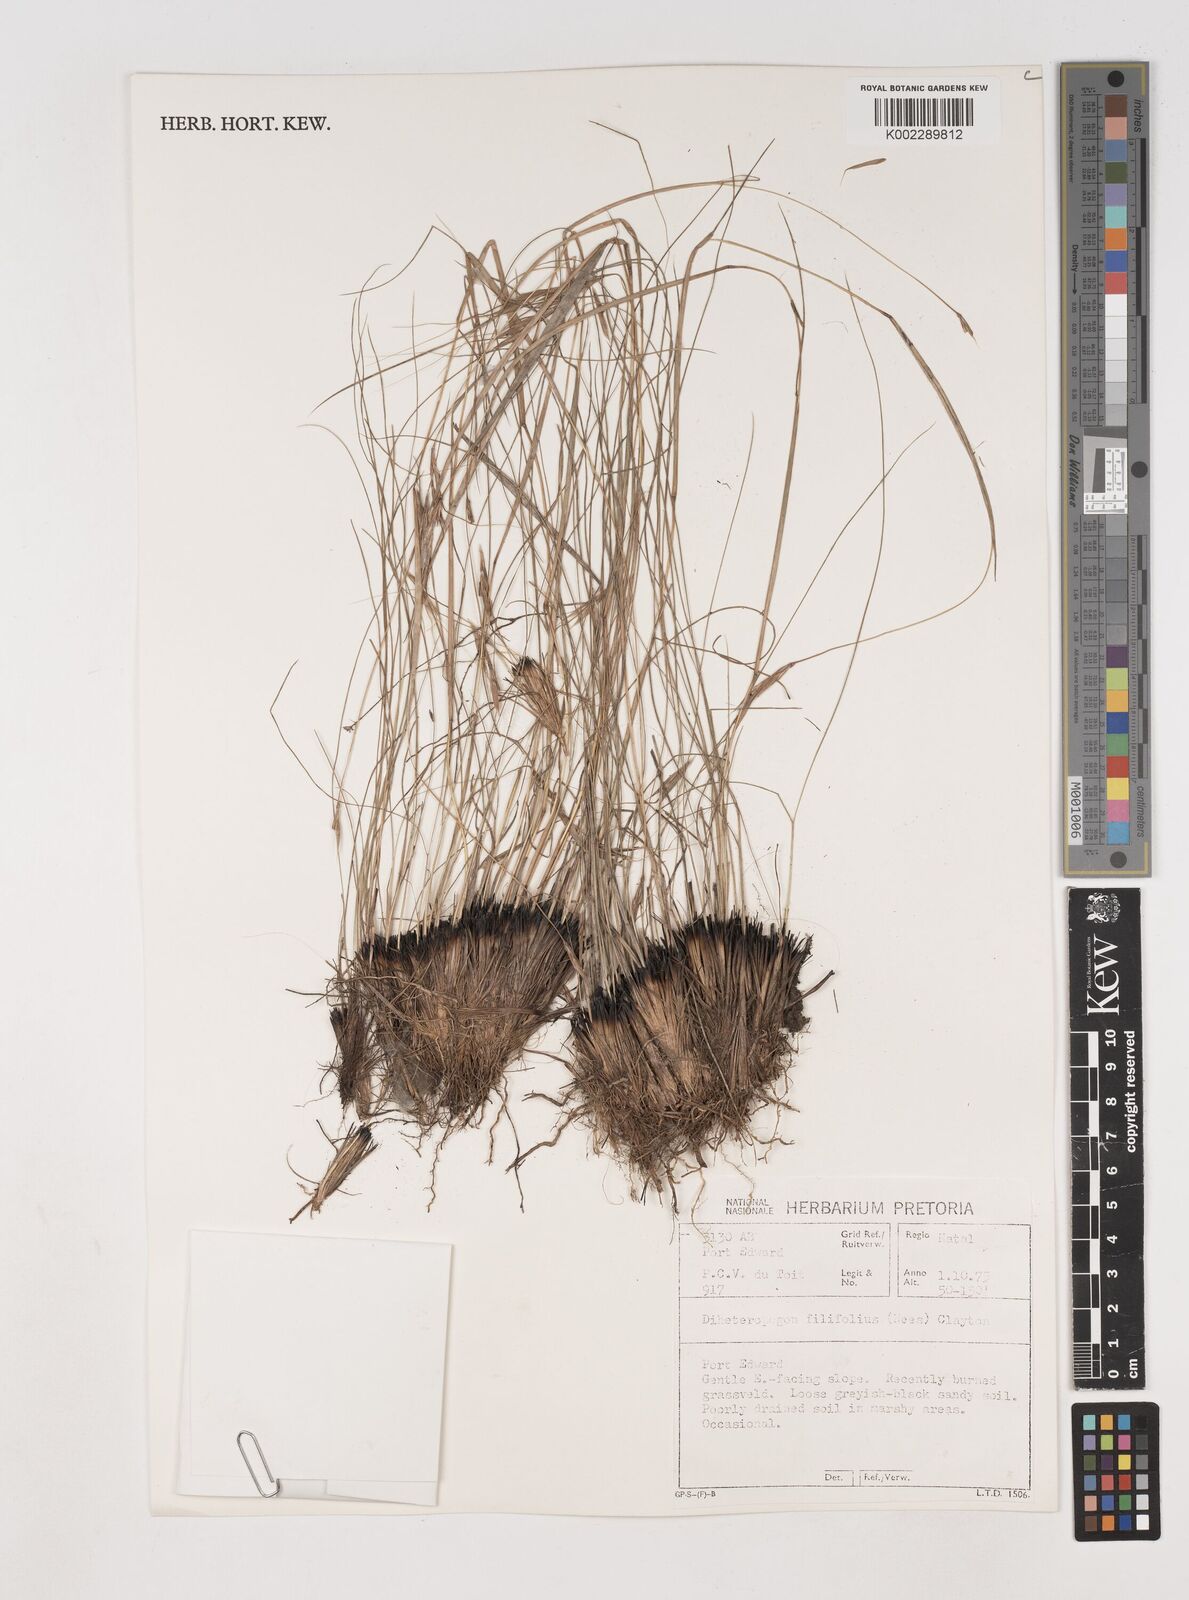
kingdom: Plantae
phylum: Tracheophyta
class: Liliopsida
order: Poales
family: Poaceae
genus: Diheteropogon
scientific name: Diheteropogon filifolius
